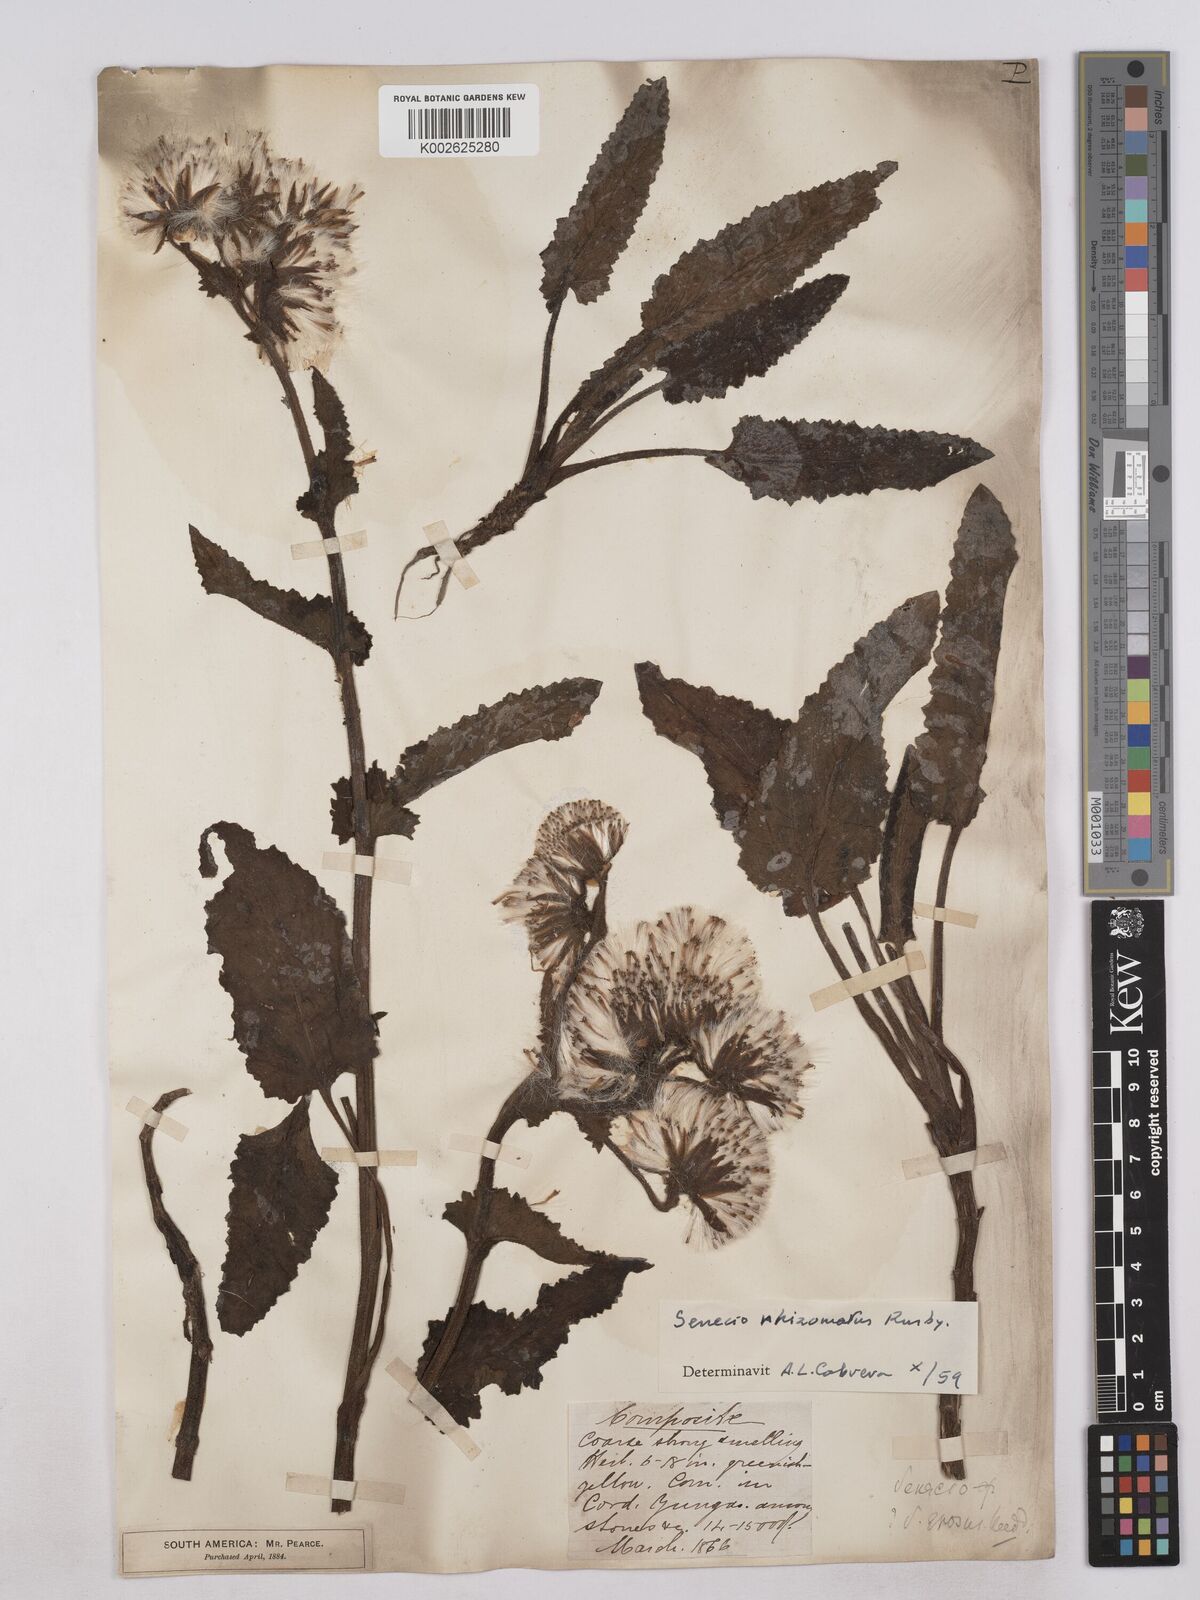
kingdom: Plantae
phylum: Tracheophyta
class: Magnoliopsida
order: Asterales
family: Asteraceae
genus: Senecio
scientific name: Senecio rhizomatus
